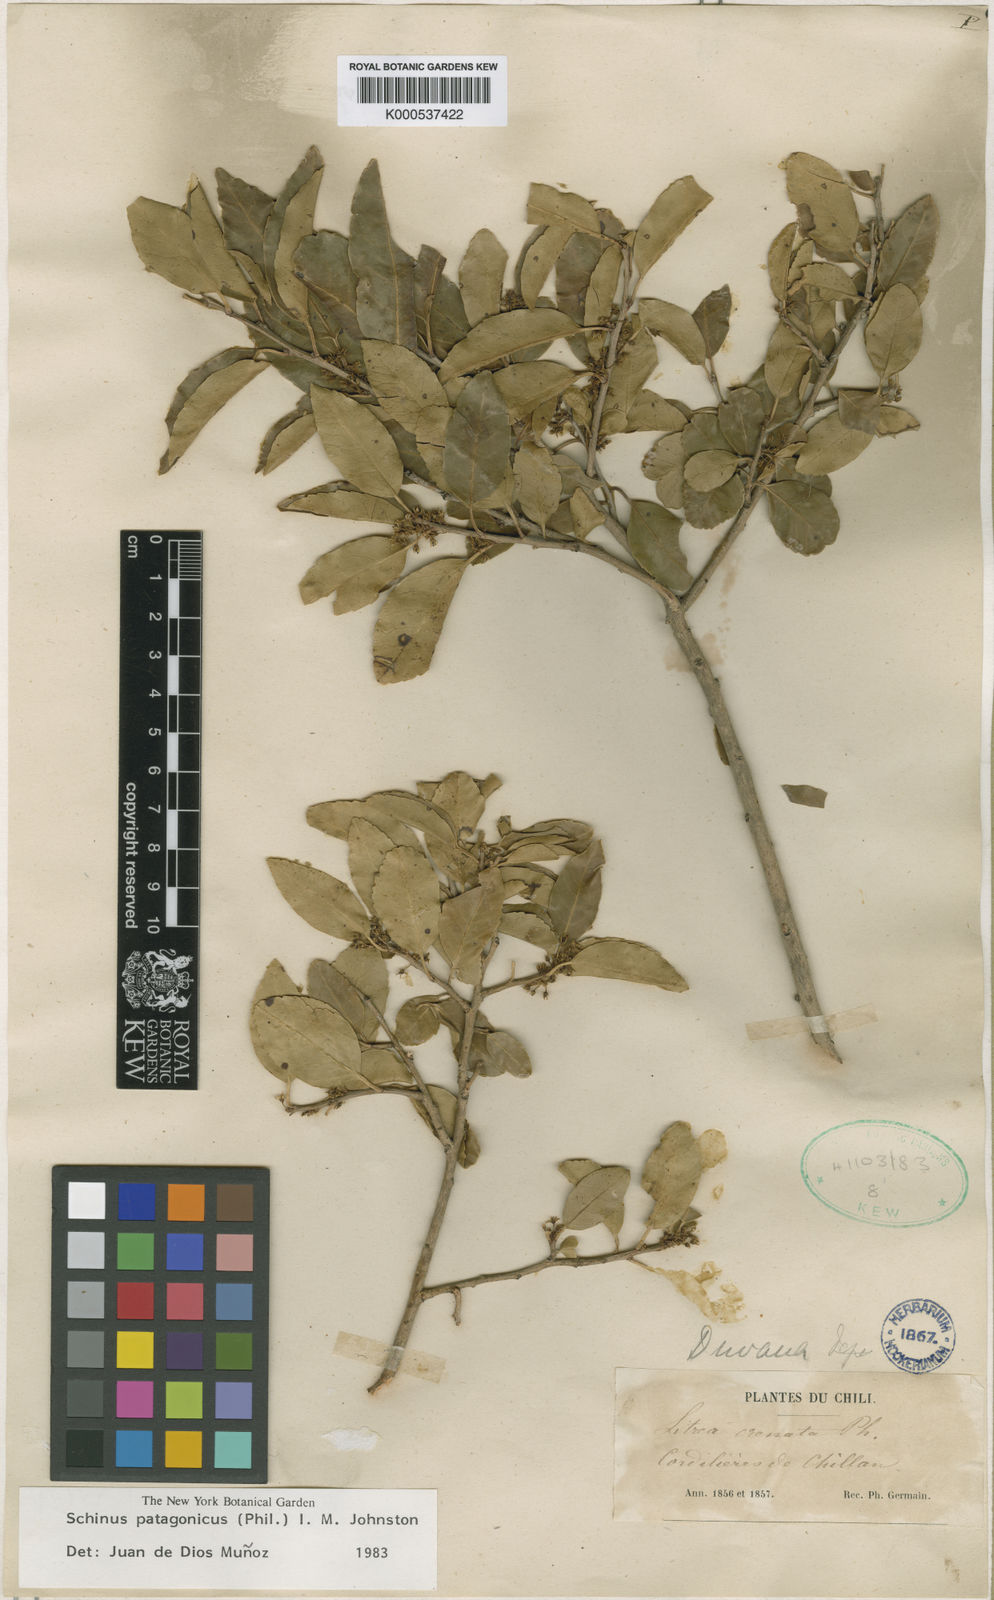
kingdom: Plantae
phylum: Tracheophyta
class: Magnoliopsida
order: Sapindales
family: Anacardiaceae
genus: Schinus
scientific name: Schinus polygama
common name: Hardee peppertree
